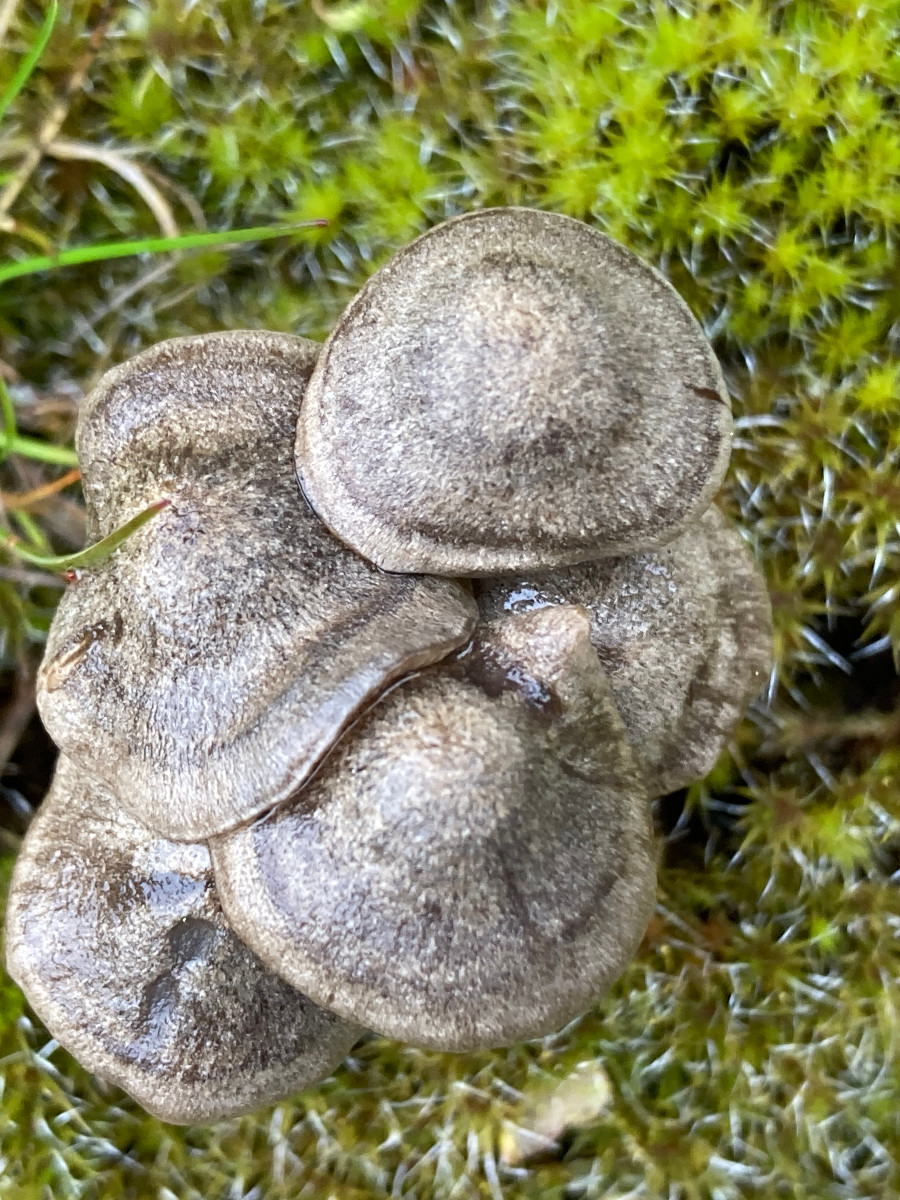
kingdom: Fungi
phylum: Basidiomycota
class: Agaricomycetes
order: Agaricales
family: Entolomataceae
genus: Entoloma
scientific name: Entoloma
